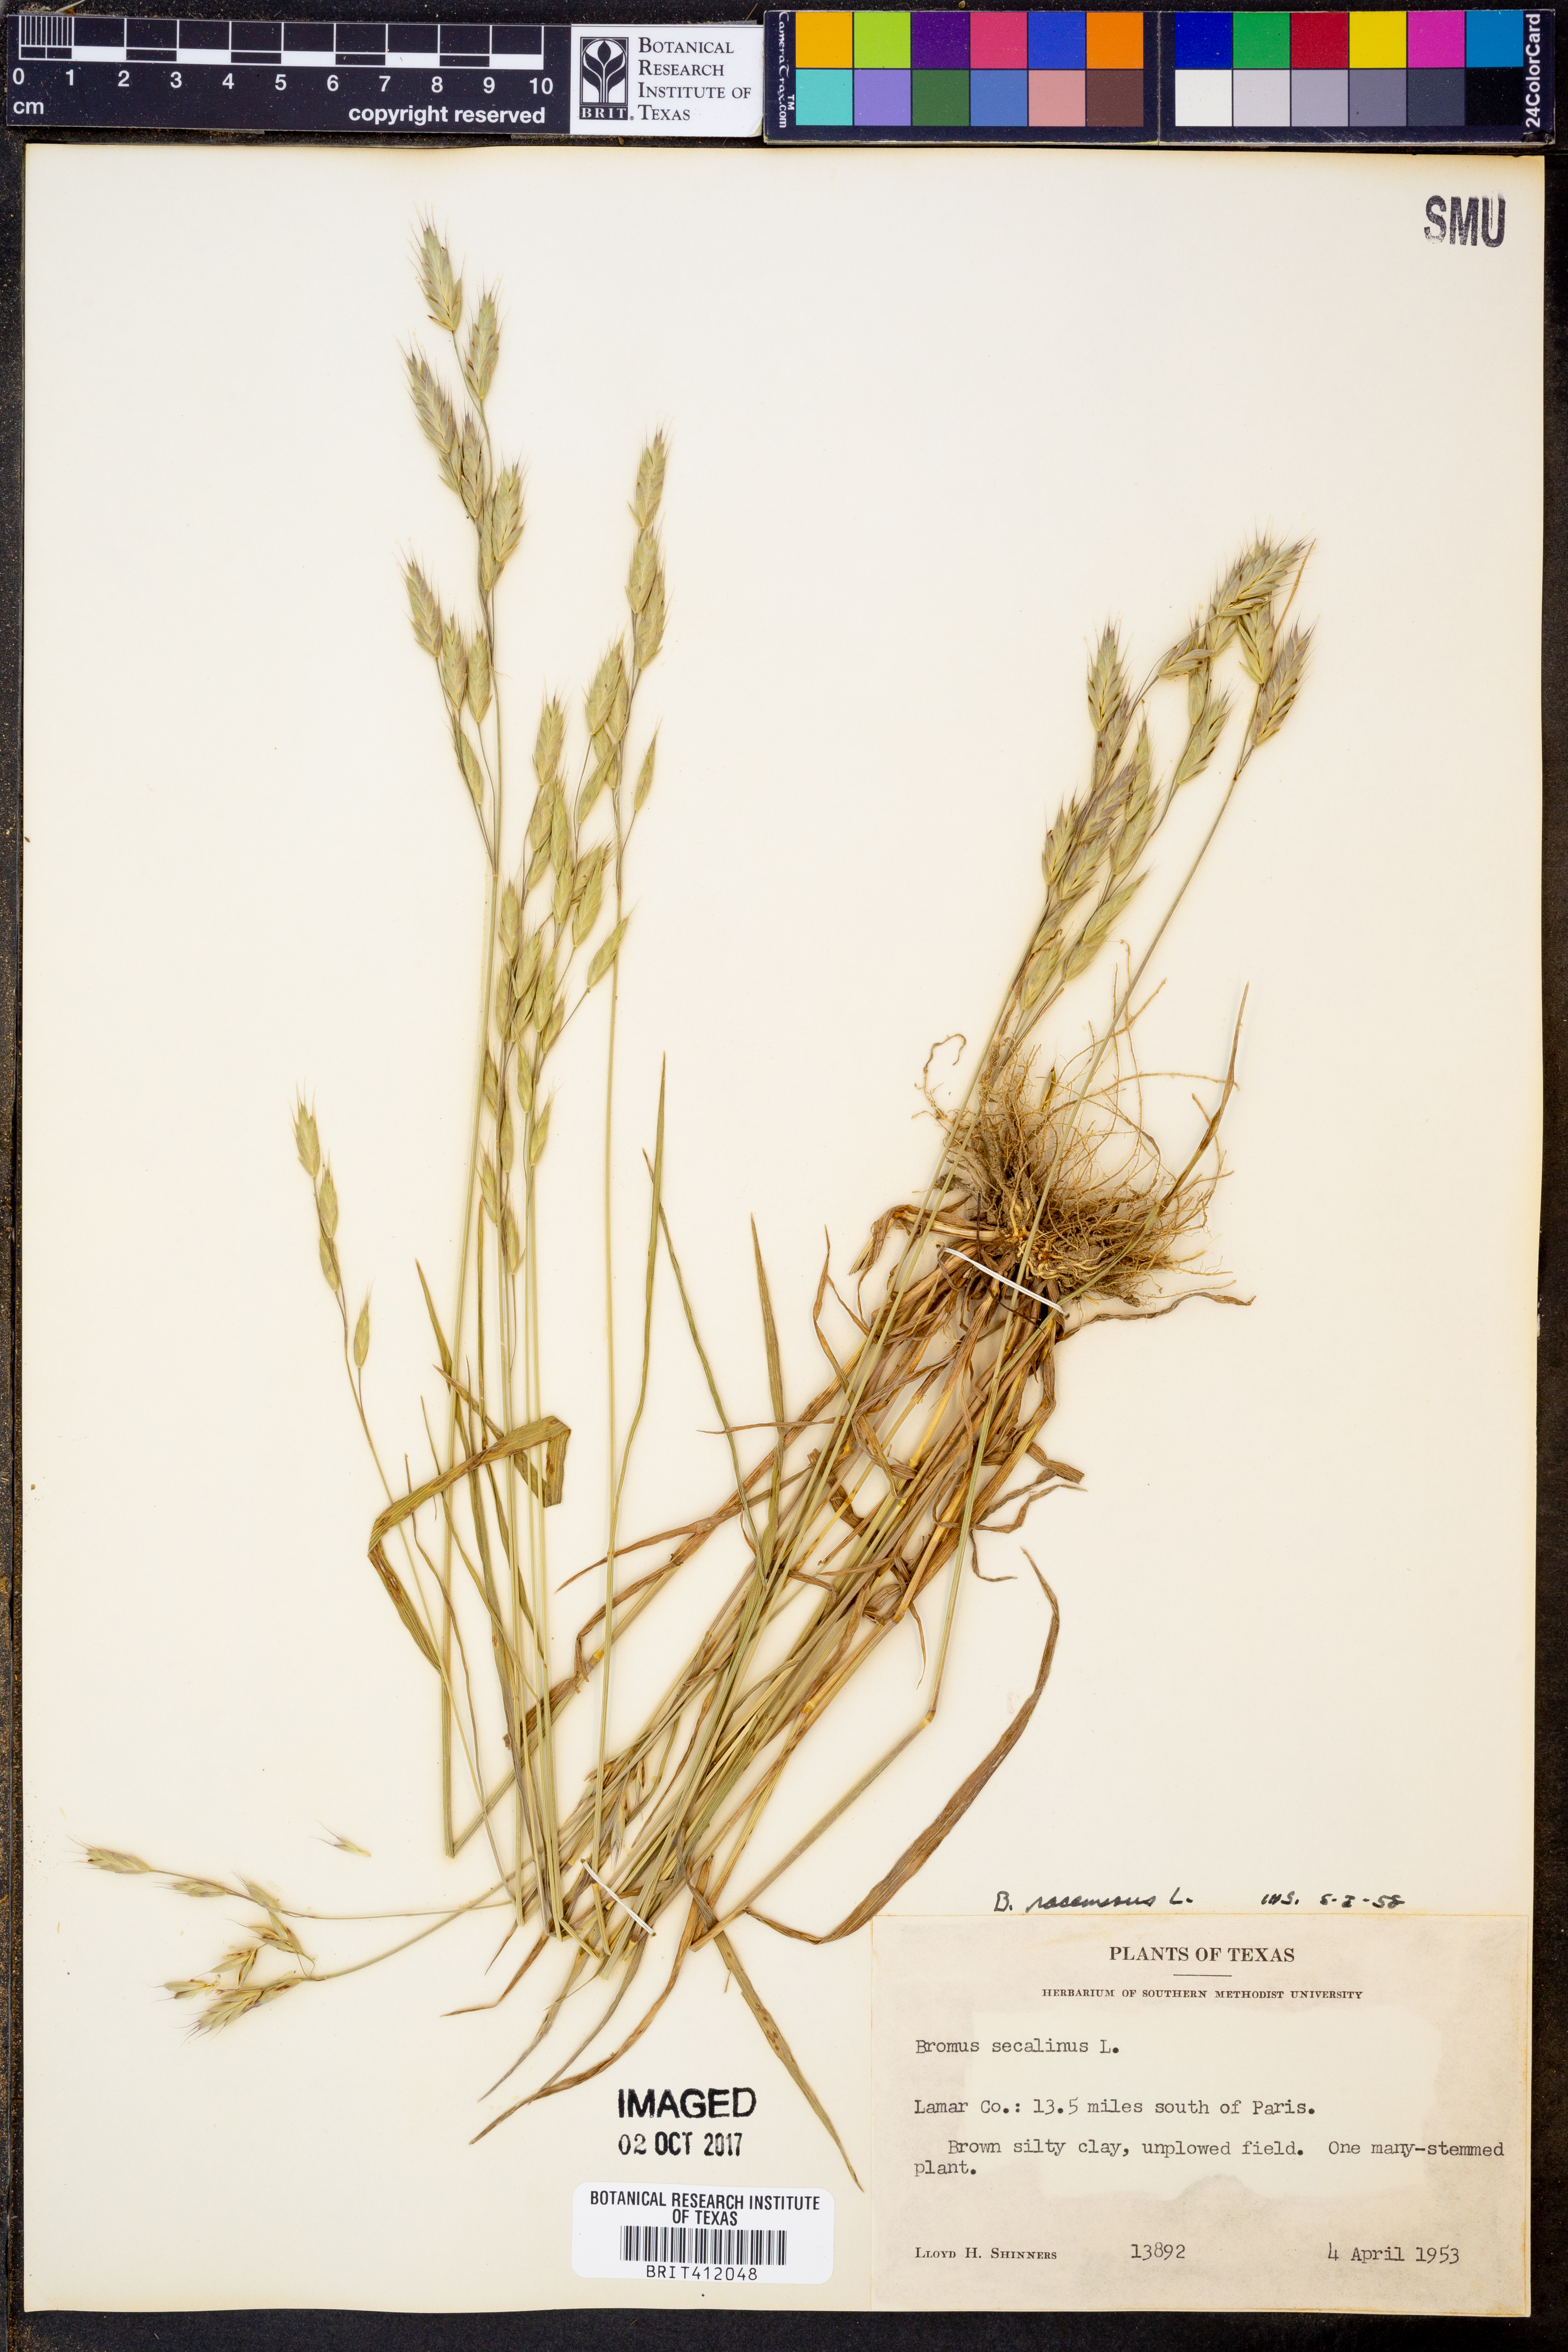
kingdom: Plantae
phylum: Tracheophyta
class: Liliopsida
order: Poales
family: Poaceae
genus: Bromus
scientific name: Bromus racemosus
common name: Bald brome
